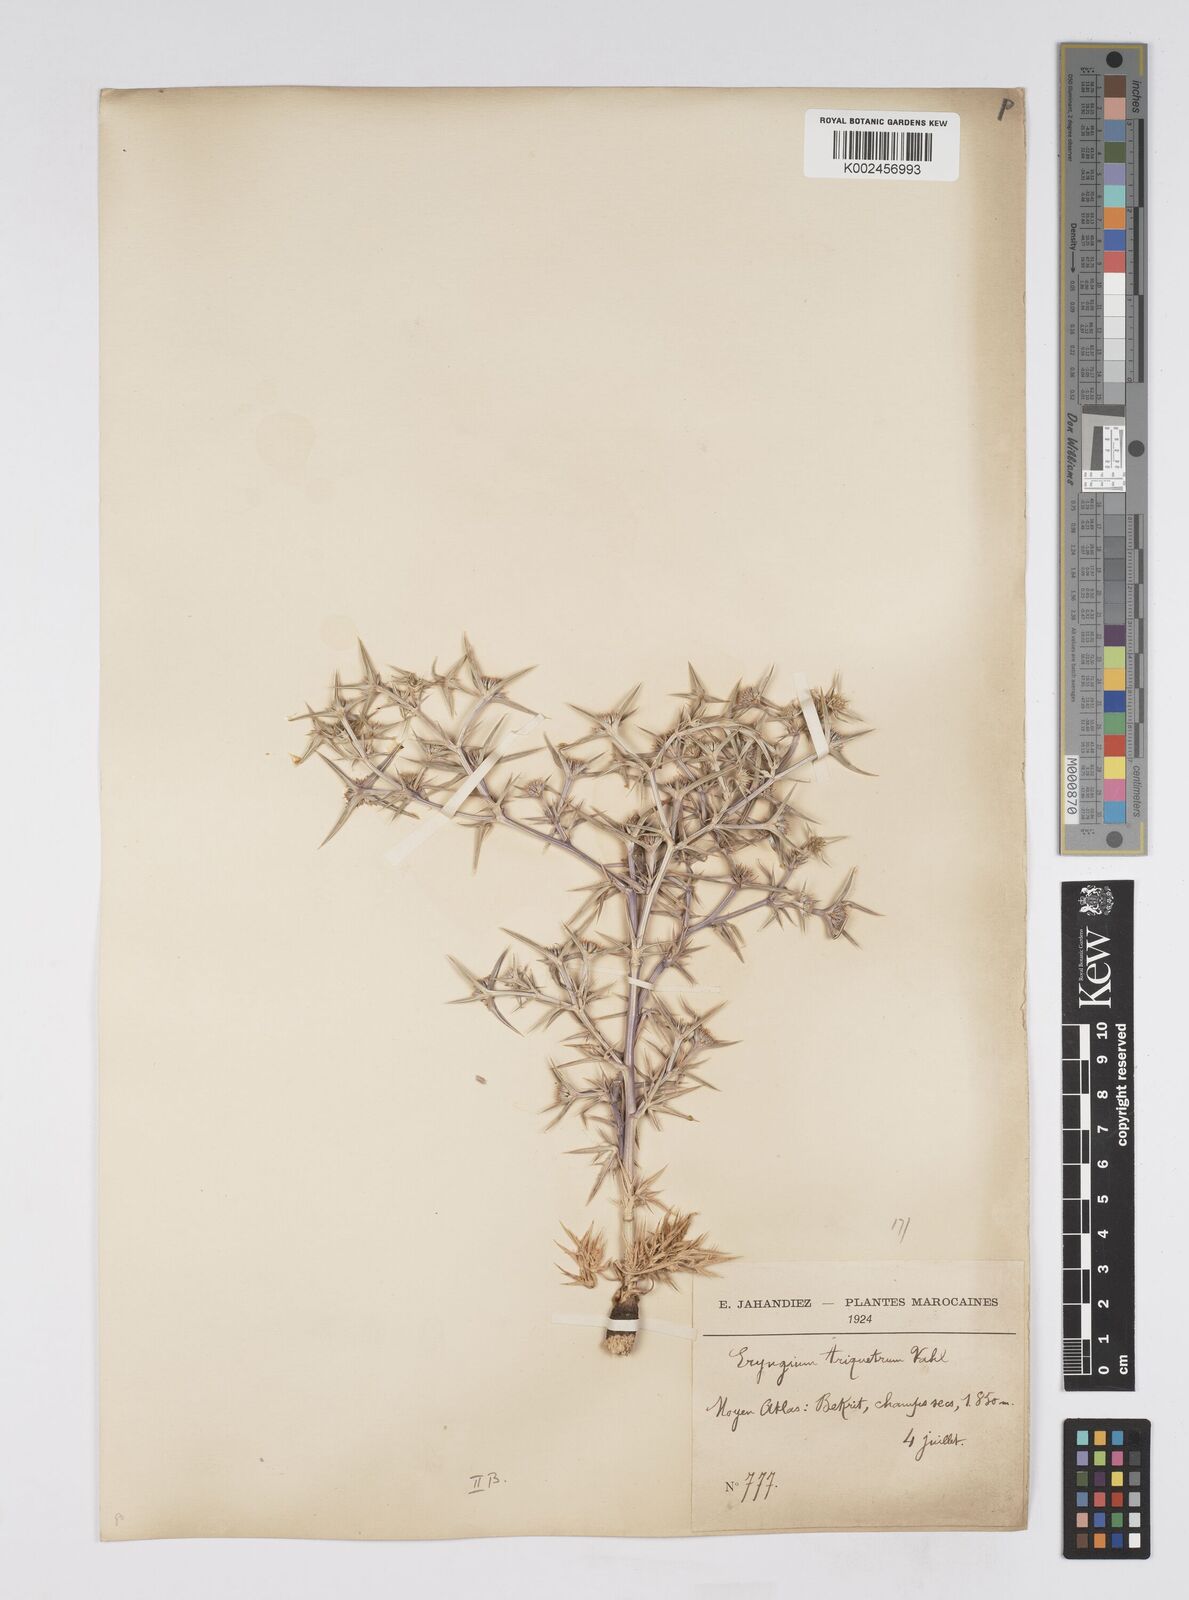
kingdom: Plantae
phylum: Tracheophyta
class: Magnoliopsida
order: Apiales
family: Apiaceae
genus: Eryngium
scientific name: Eryngium
